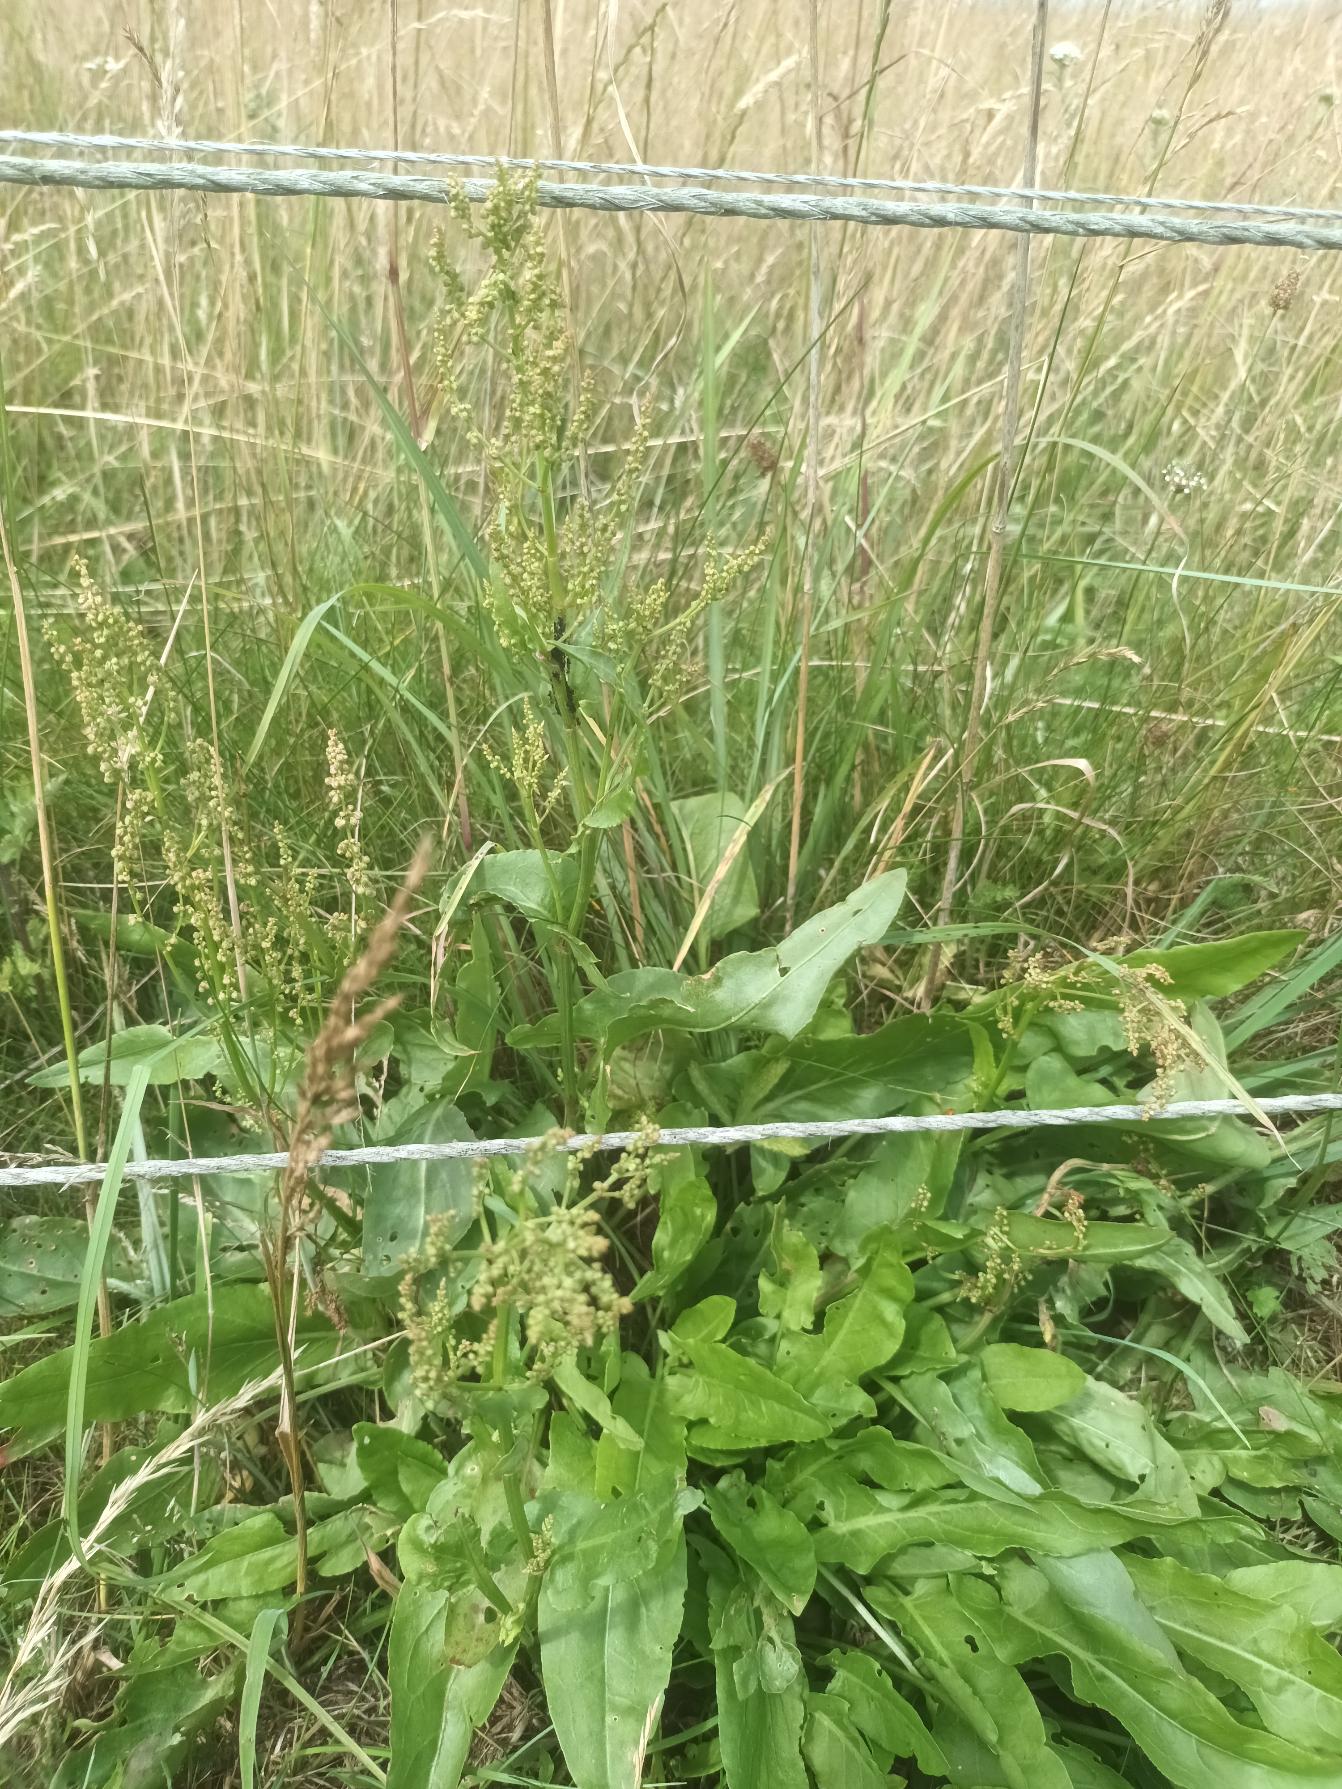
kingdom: Plantae
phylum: Tracheophyta
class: Magnoliopsida
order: Caryophyllales
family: Polygonaceae
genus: Rumex
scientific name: Rumex thyrsiflorus
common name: Dusk-syre
